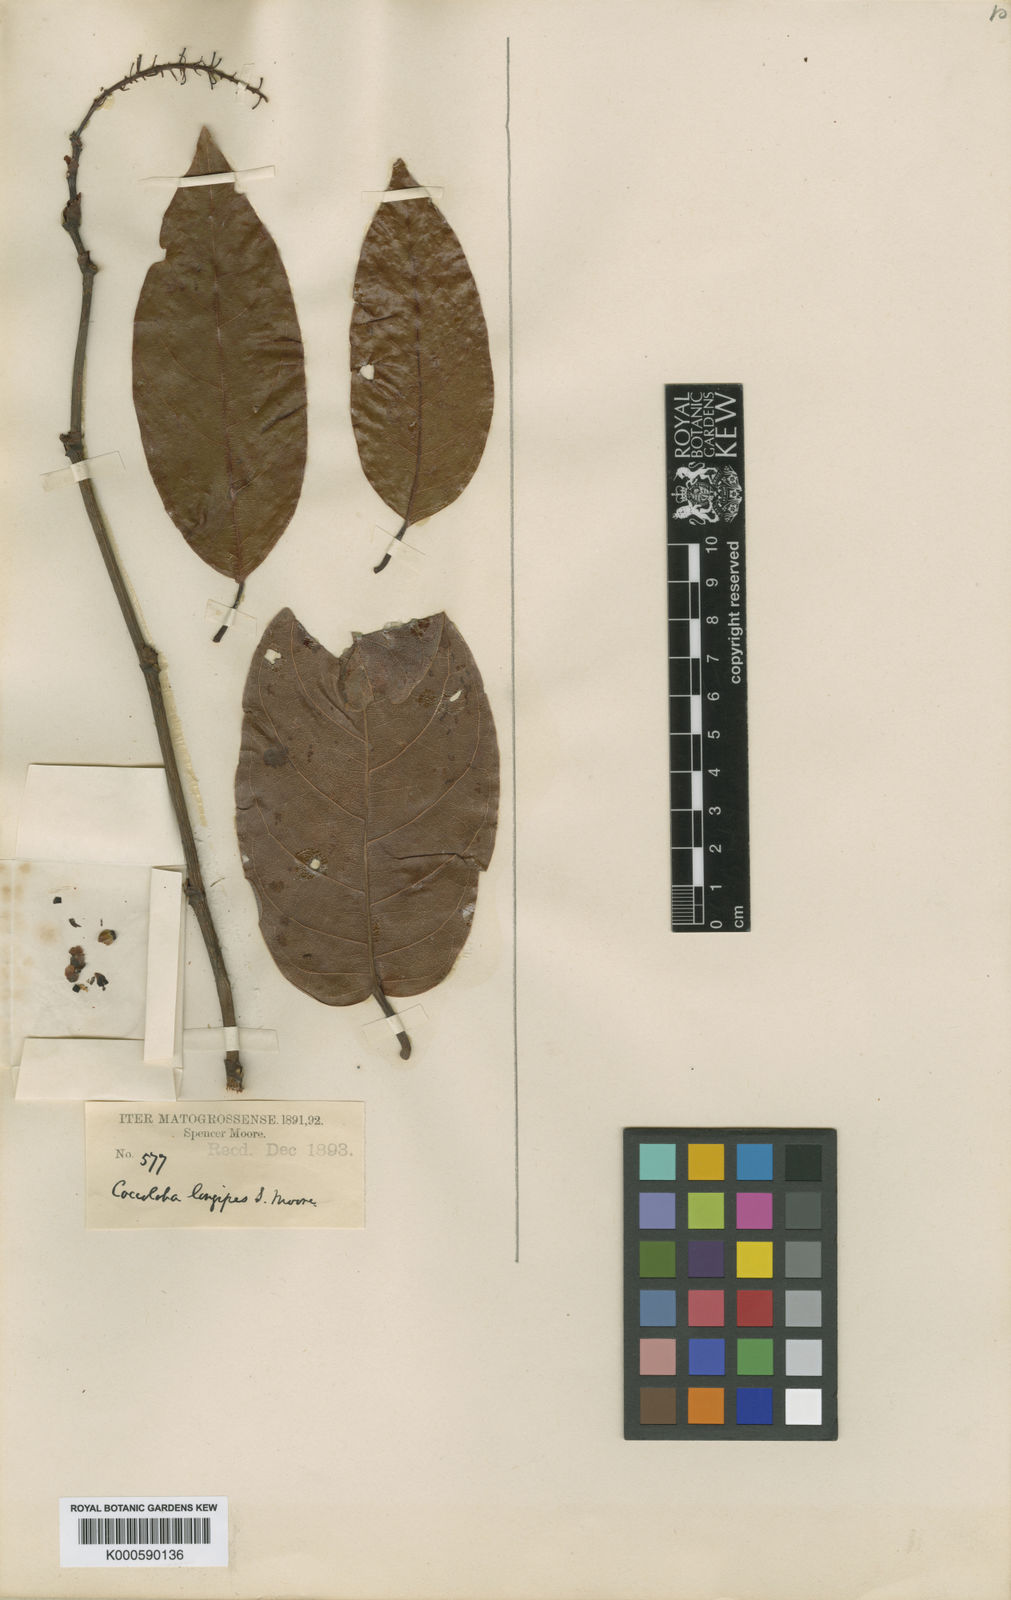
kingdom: Plantae
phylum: Tracheophyta
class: Magnoliopsida
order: Caryophyllales
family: Polygonaceae
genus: Coccoloba
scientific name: Coccoloba longipes
